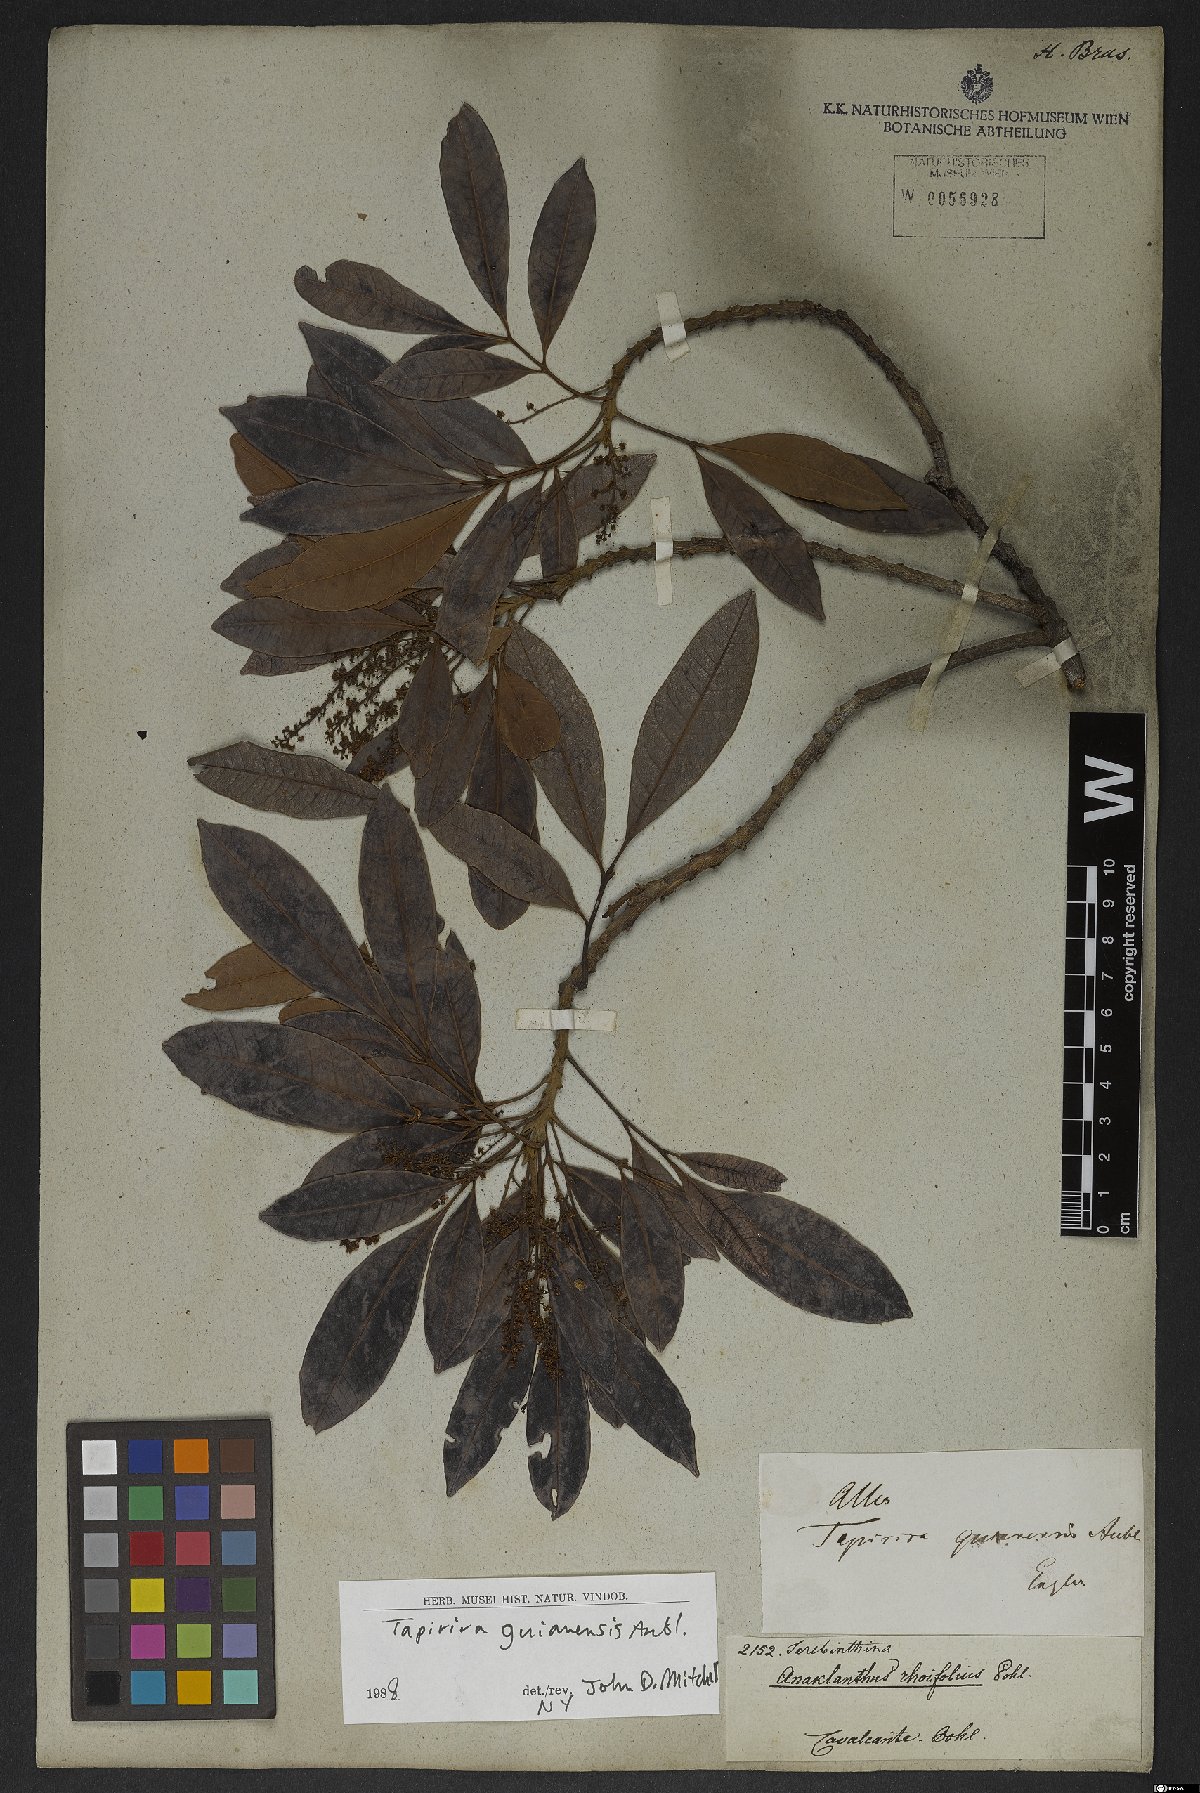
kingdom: Plantae
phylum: Tracheophyta
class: Magnoliopsida
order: Sapindales
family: Anacardiaceae
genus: Tapirira
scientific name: Tapirira guianensis
